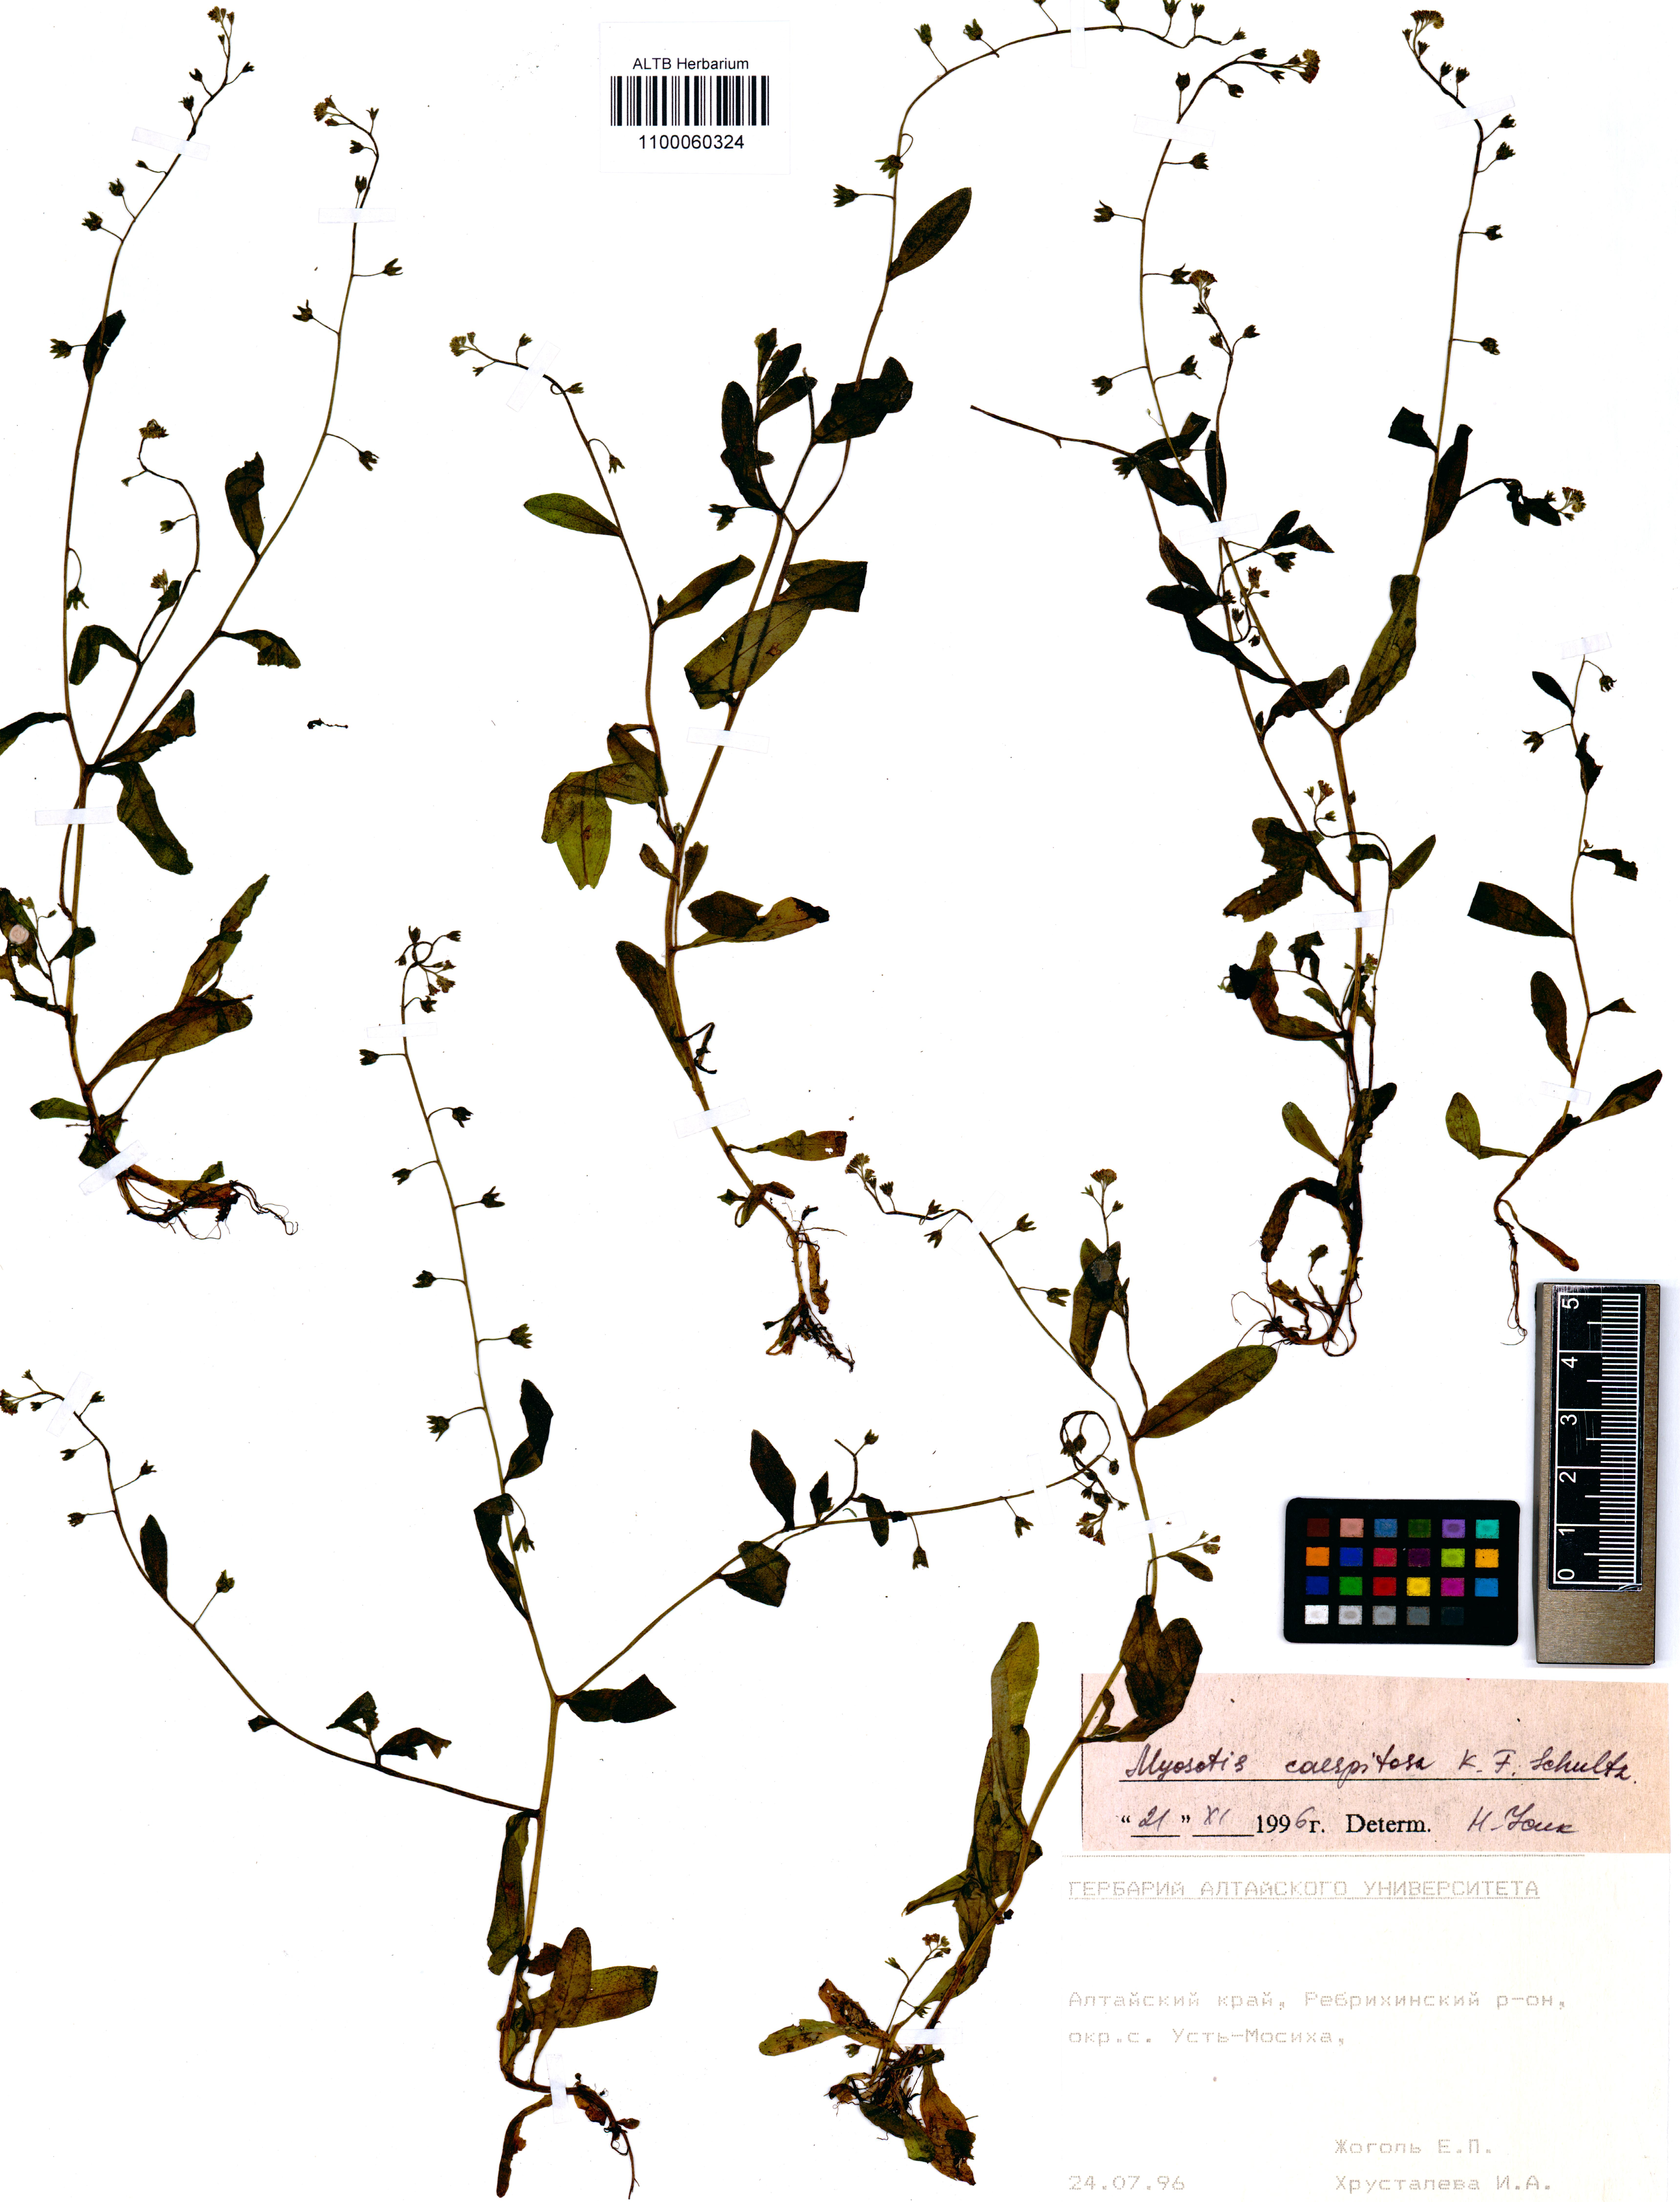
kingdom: Plantae
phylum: Tracheophyta
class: Magnoliopsida
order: Boraginales
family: Boraginaceae
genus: Myosotis
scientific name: Myosotis laxa
